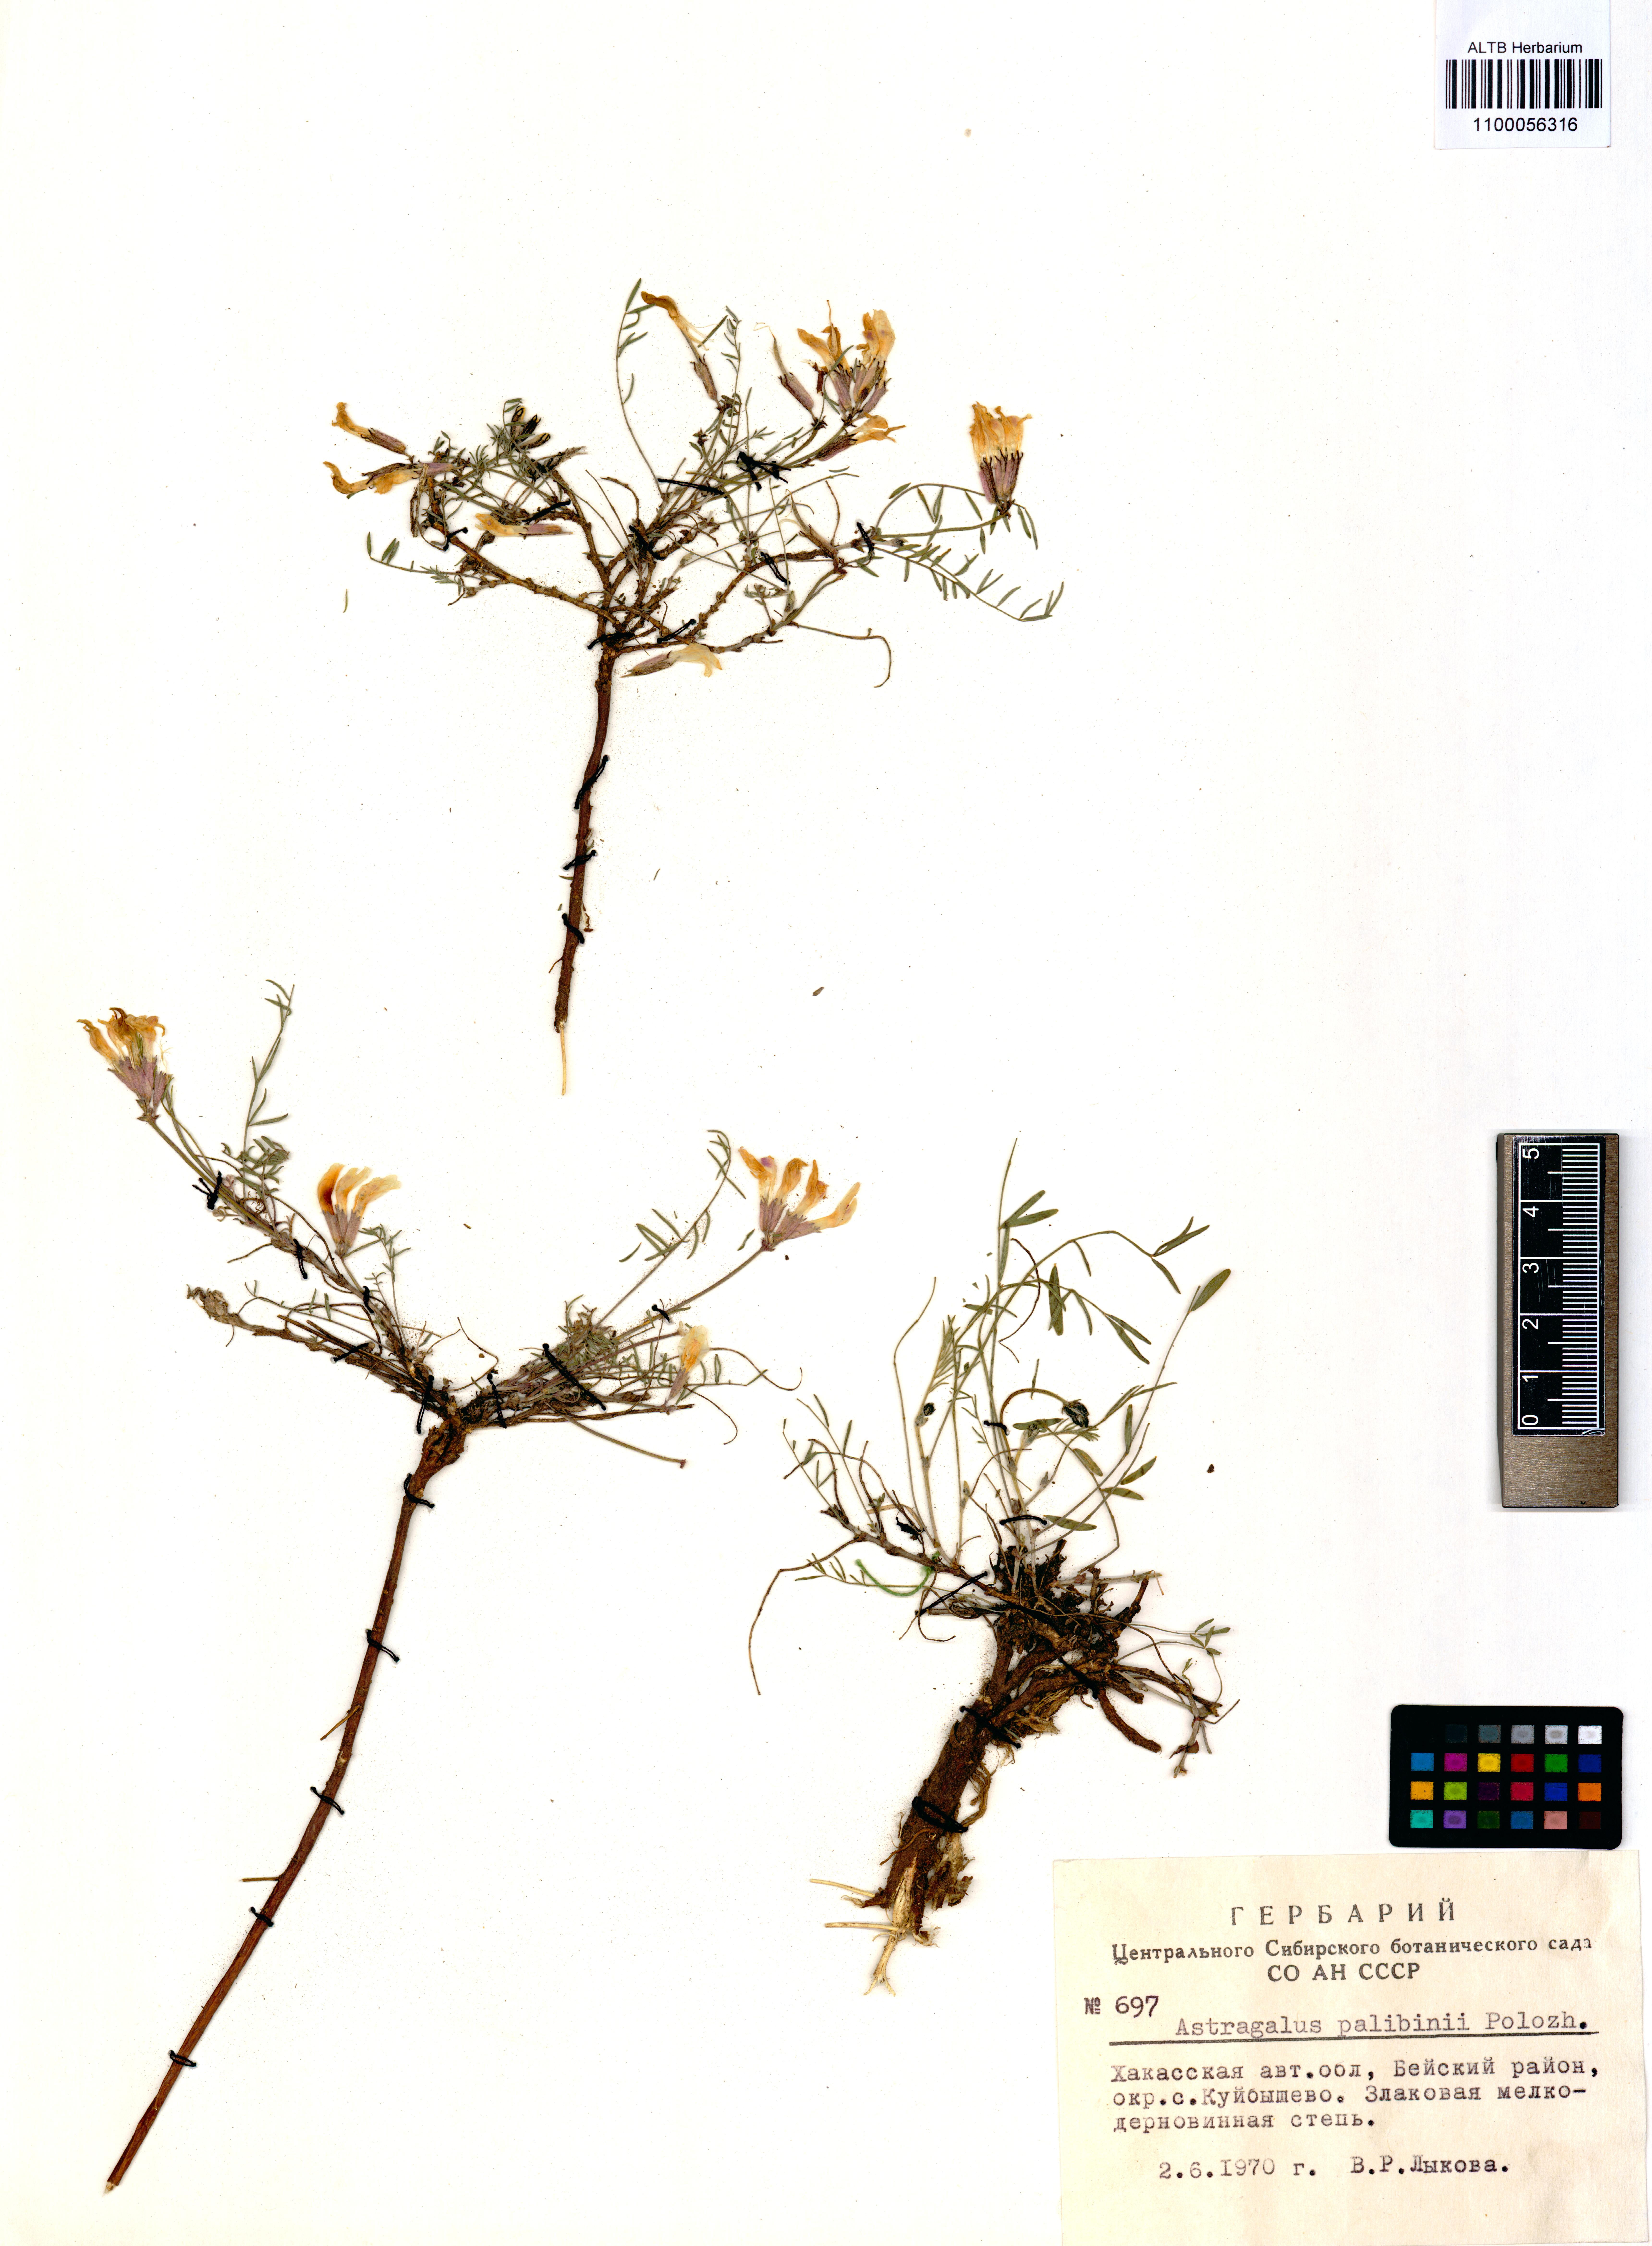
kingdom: Plantae
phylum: Tracheophyta
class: Magnoliopsida
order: Fabales
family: Fabaceae
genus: Astragalus
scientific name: Astragalus palibinii
